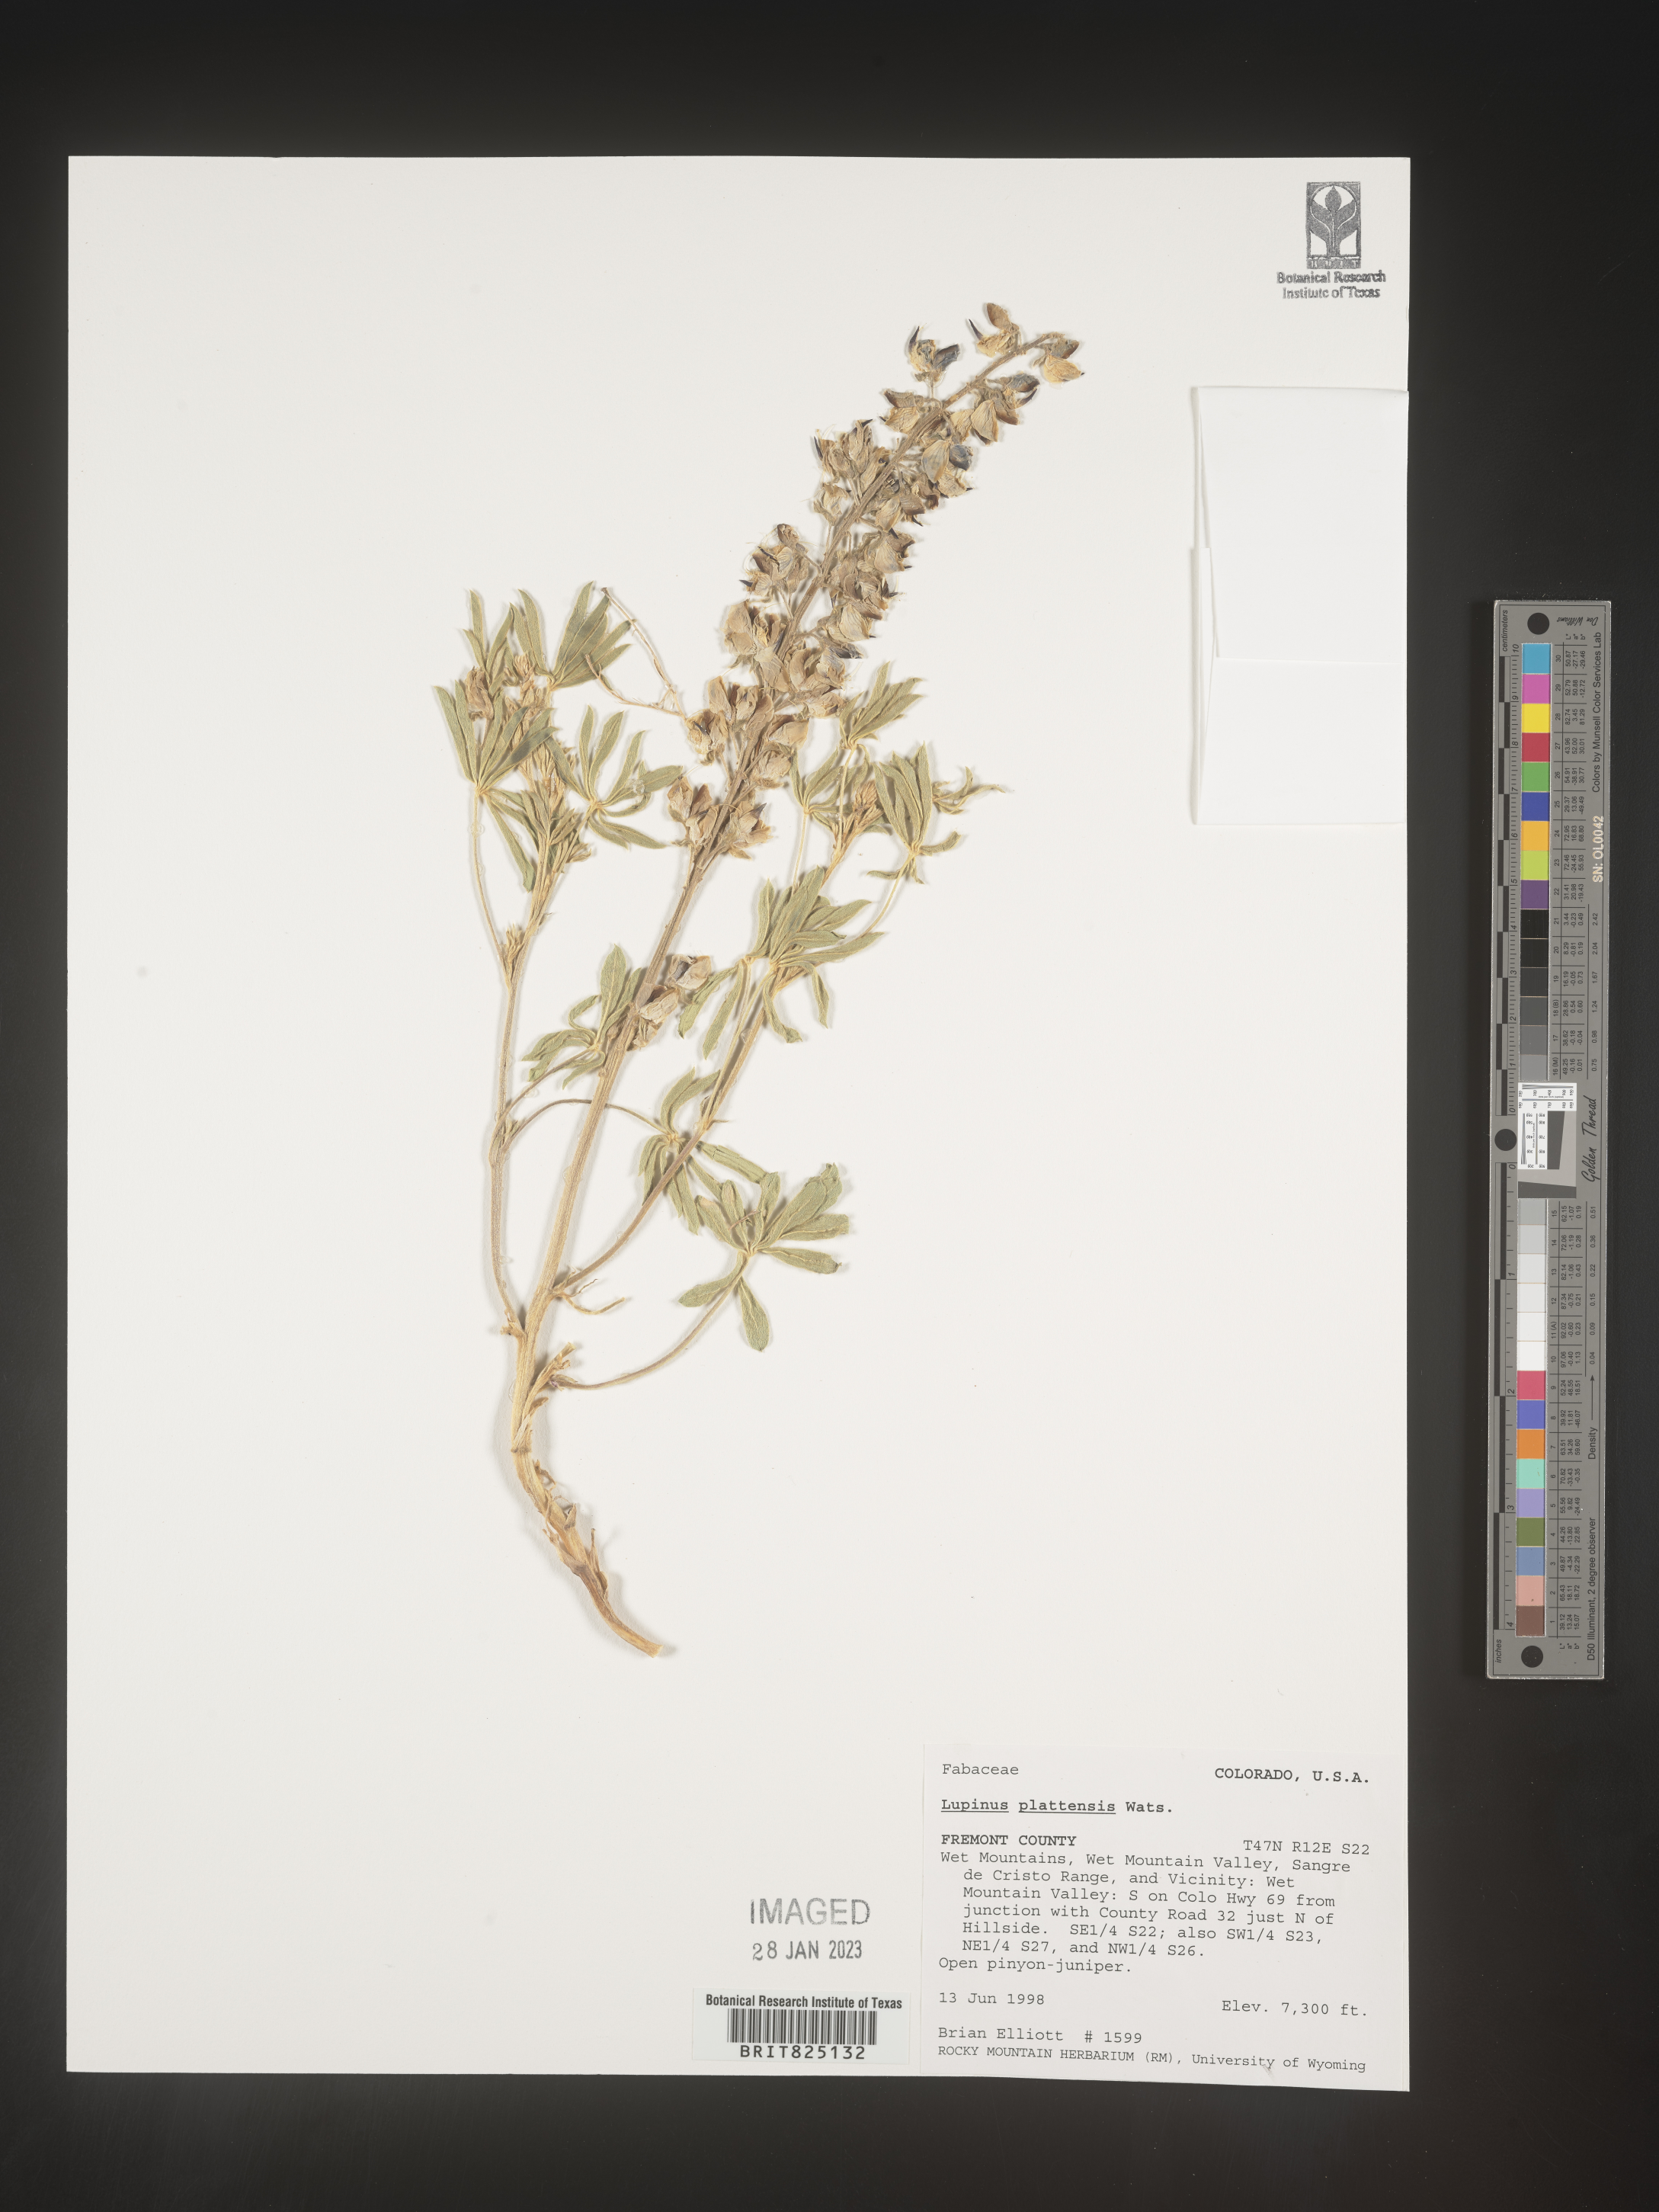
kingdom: Plantae
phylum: Tracheophyta
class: Magnoliopsida
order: Fabales
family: Fabaceae
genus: Lupinus
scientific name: Lupinus plattensis
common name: Platte lupine
